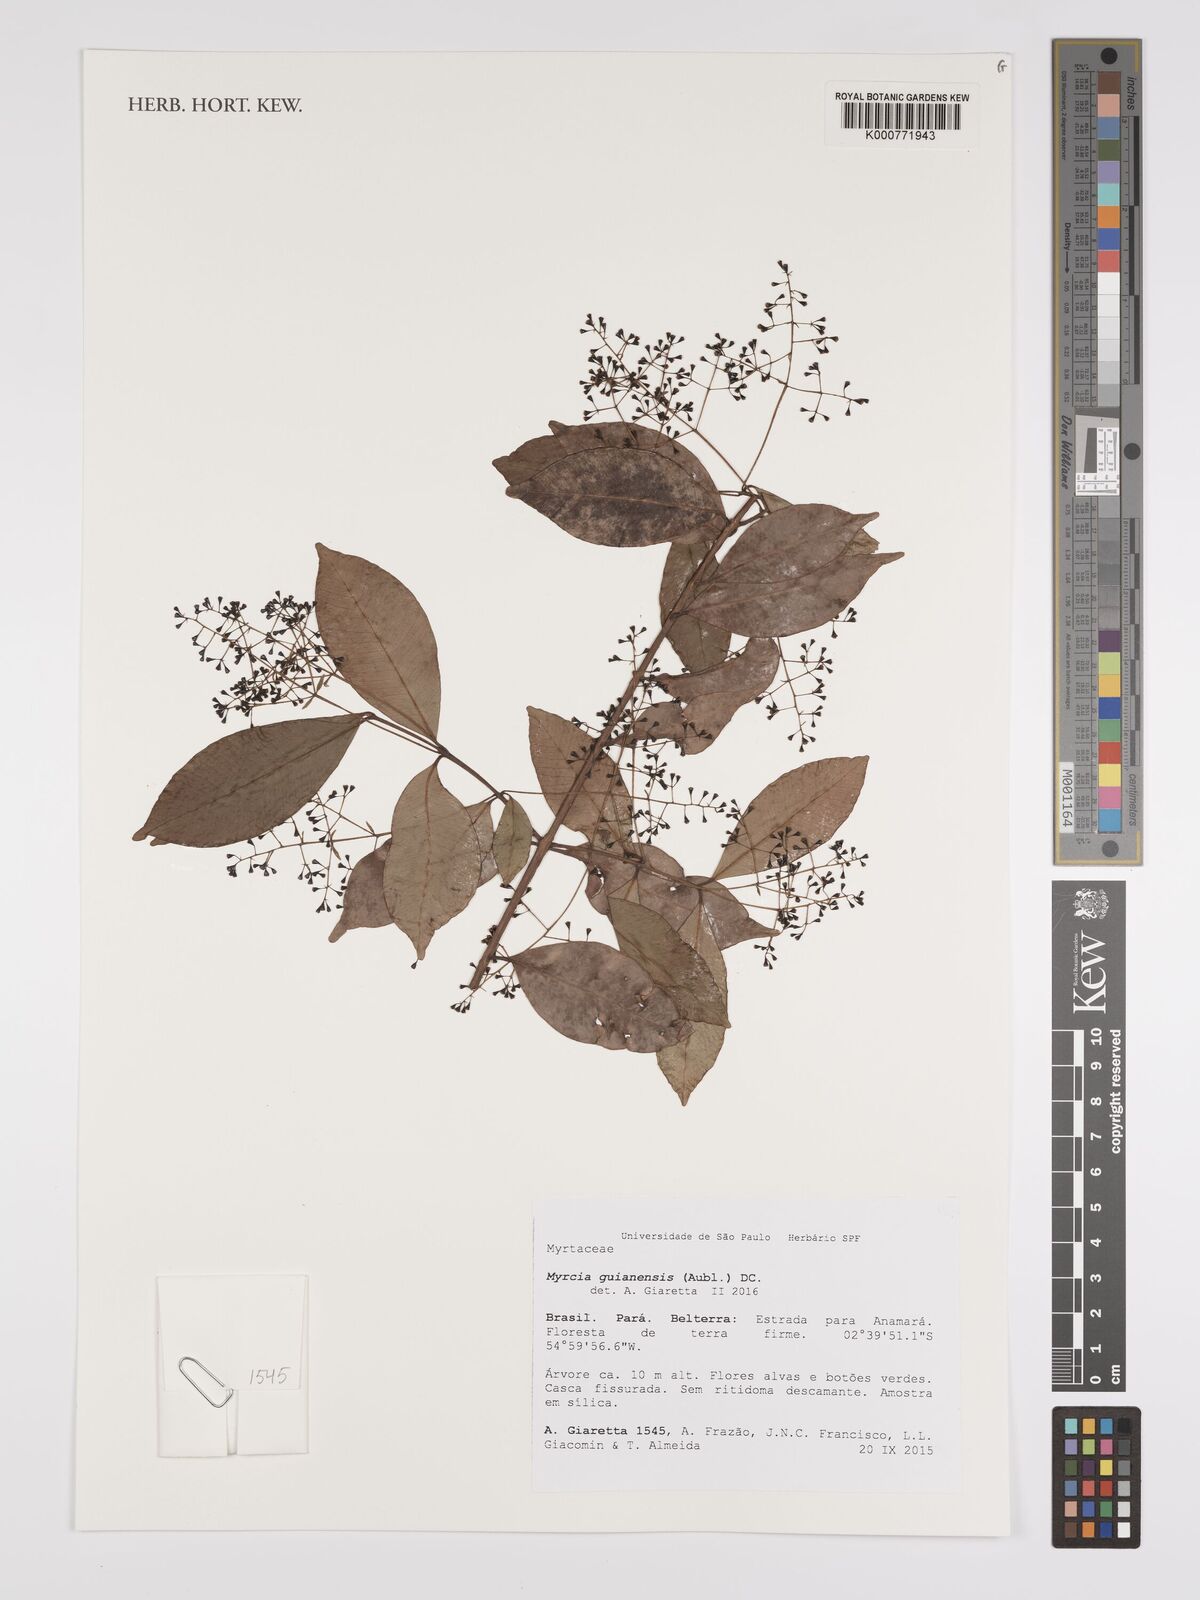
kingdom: Plantae
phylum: Tracheophyta
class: Magnoliopsida
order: Myrtales
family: Myrtaceae
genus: Myrcia
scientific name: Myrcia guianensis
